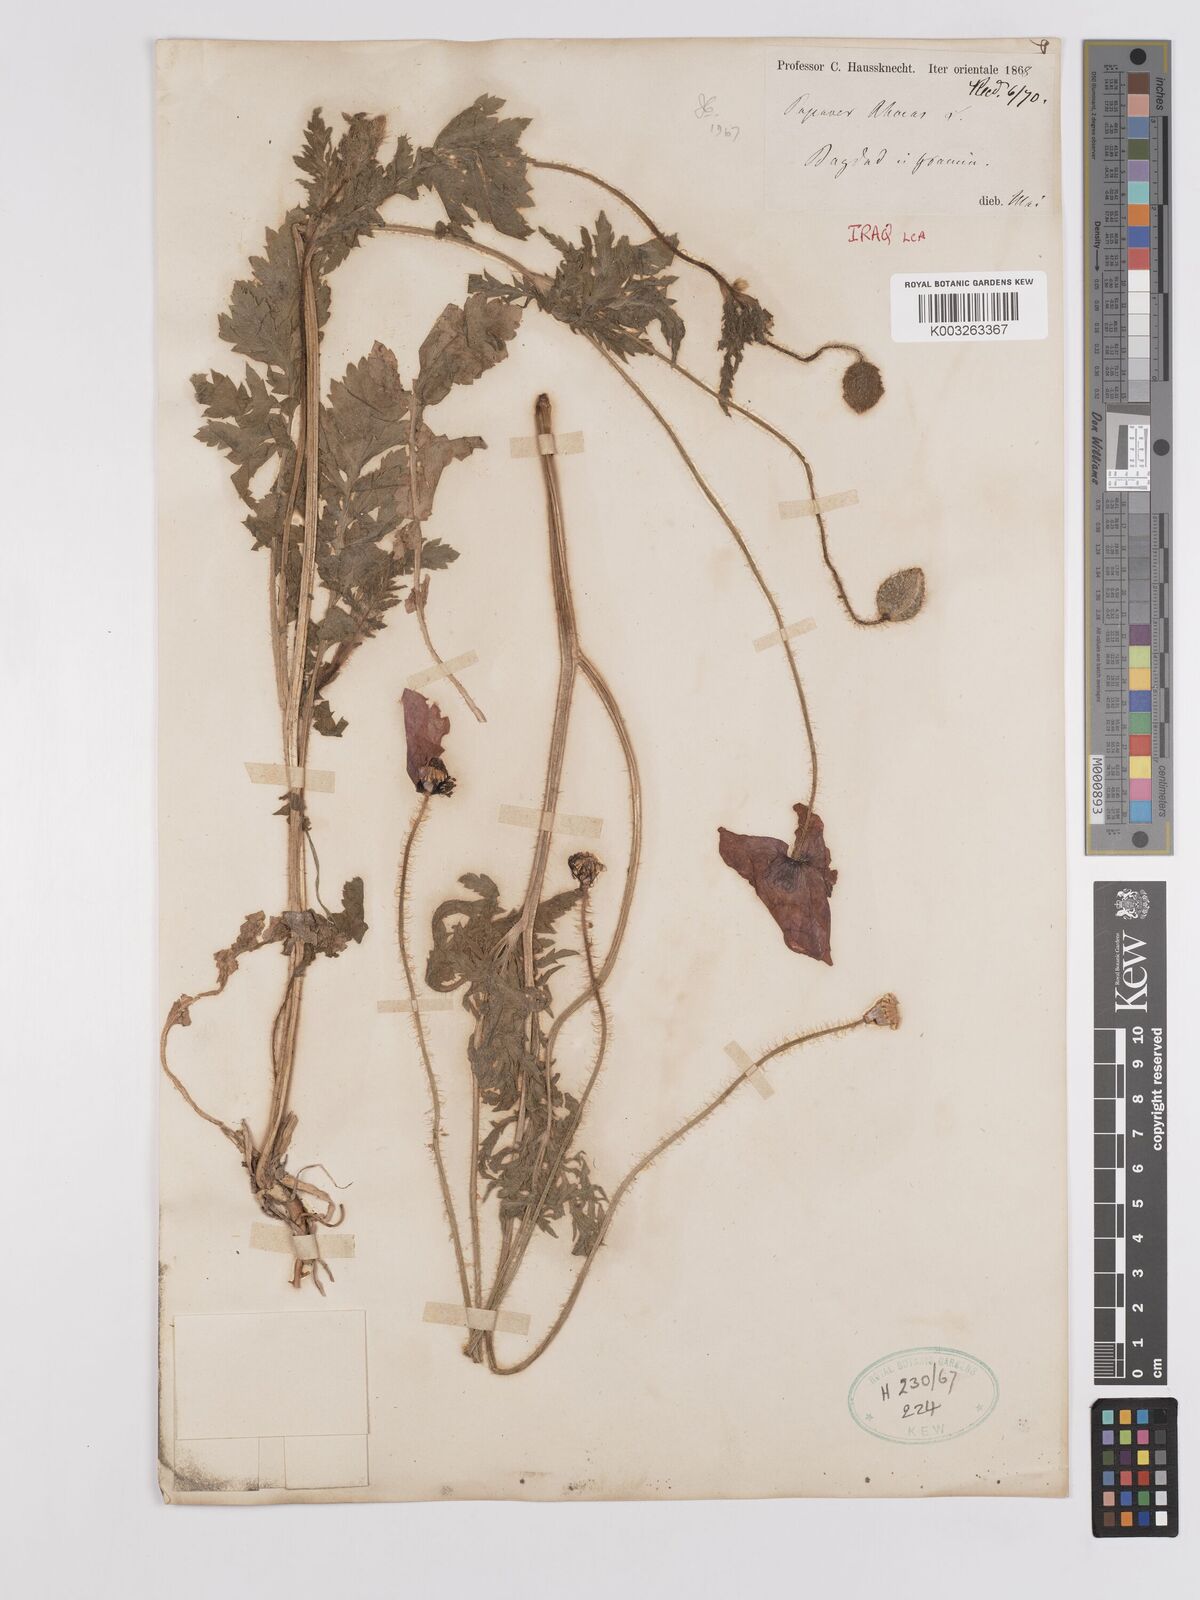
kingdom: Plantae
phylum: Tracheophyta
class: Magnoliopsida
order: Ranunculales
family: Papaveraceae
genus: Papaver
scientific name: Papaver rhoeas
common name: Corn poppy
